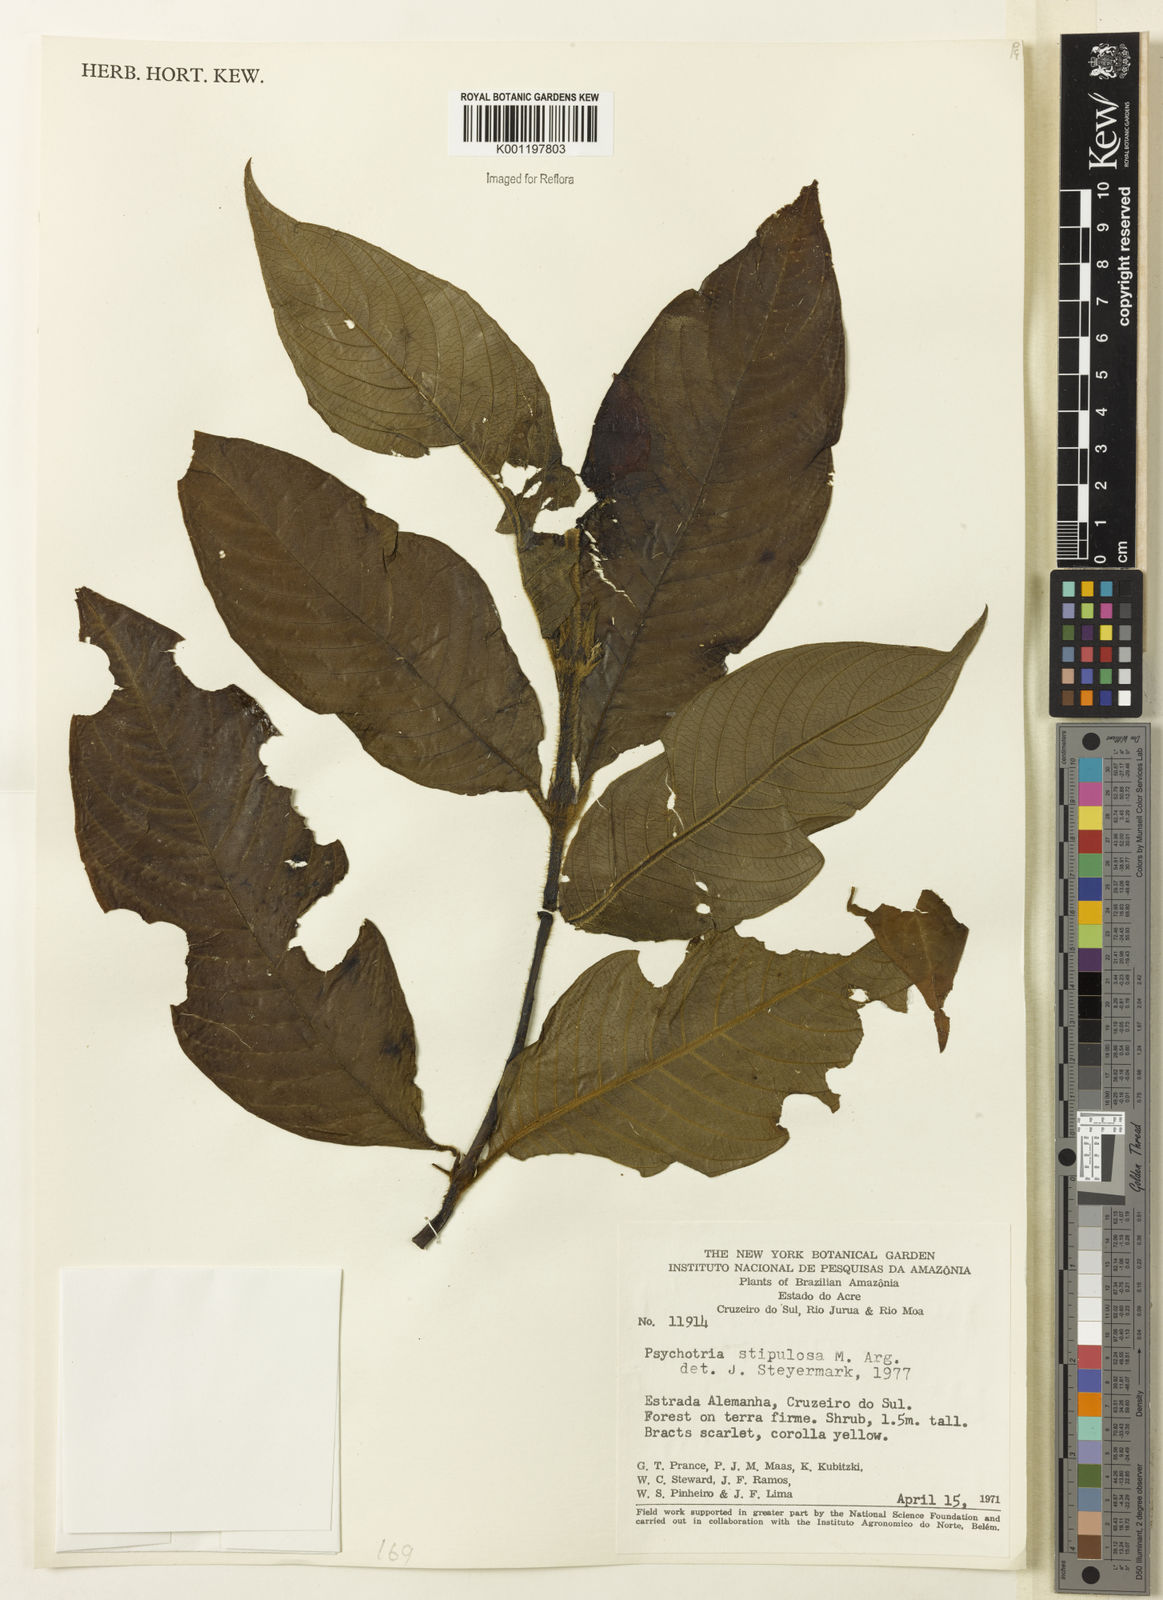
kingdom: Plantae
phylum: Tracheophyta
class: Magnoliopsida
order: Gentianales
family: Rubiaceae
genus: Psychotria
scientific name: Psychotria
